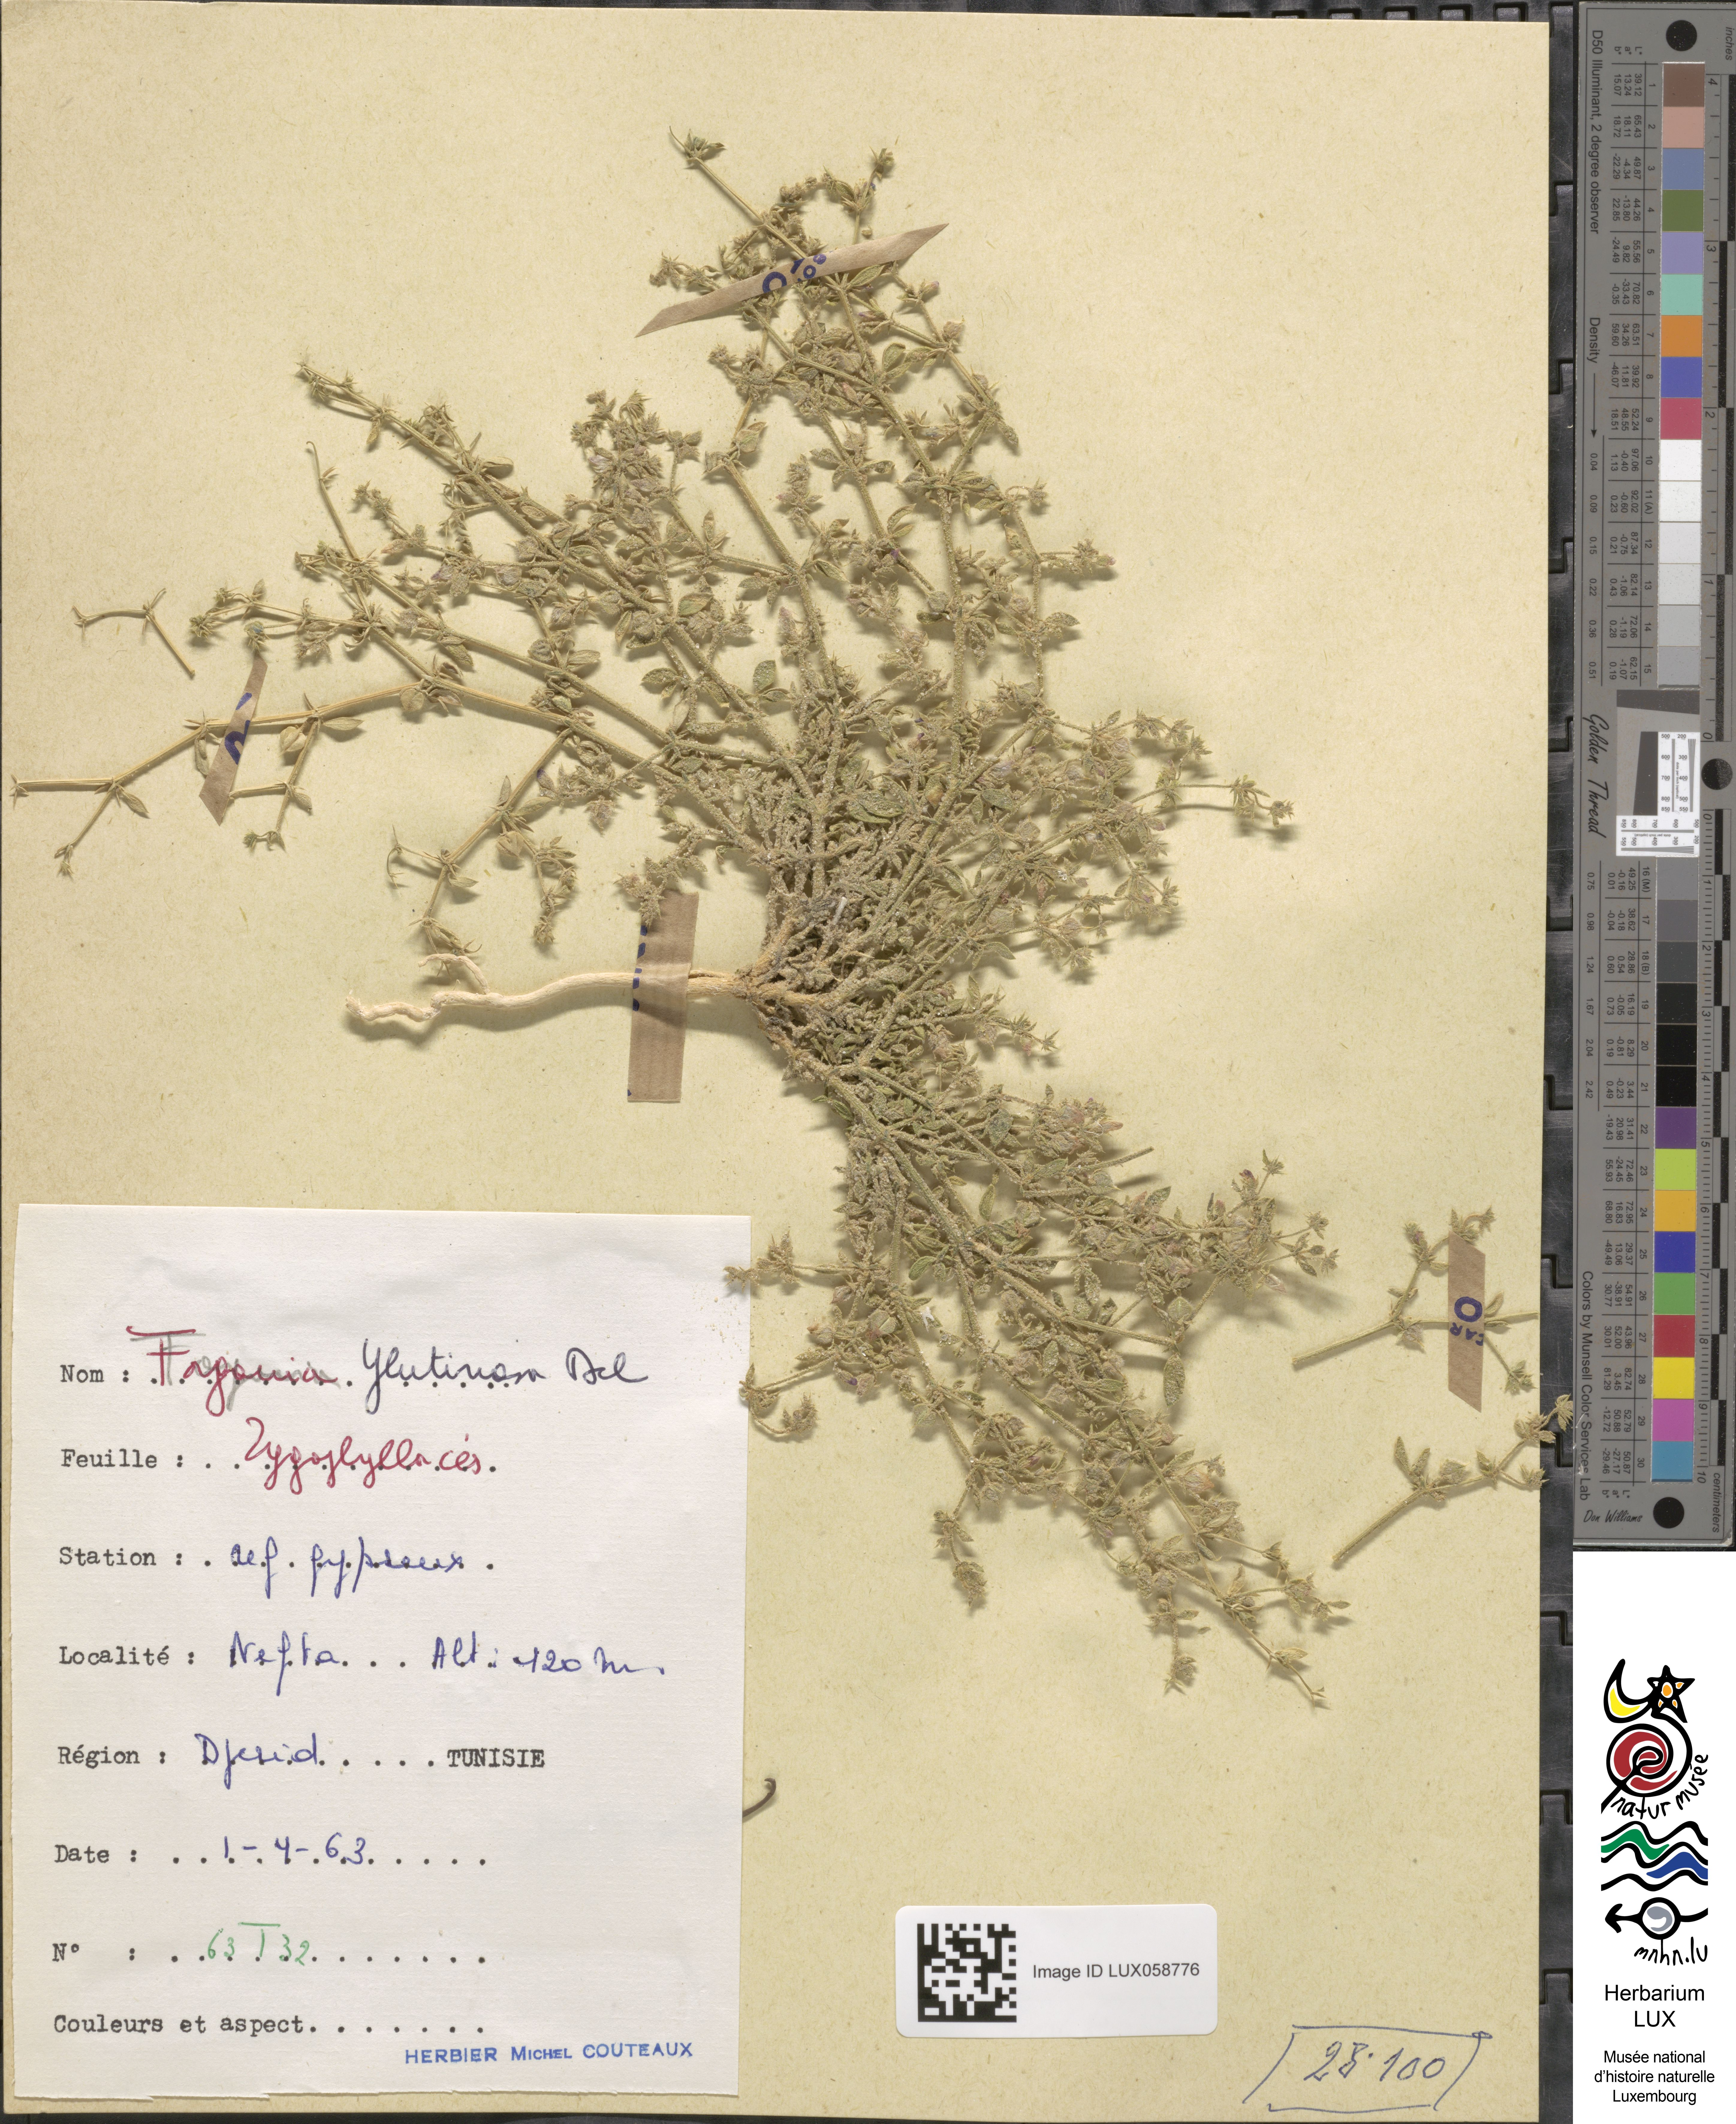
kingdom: Plantae
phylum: Tracheophyta
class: Magnoliopsida
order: Zygophyllales
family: Zygophyllaceae
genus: Fagonia
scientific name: Fagonia glutinosa
